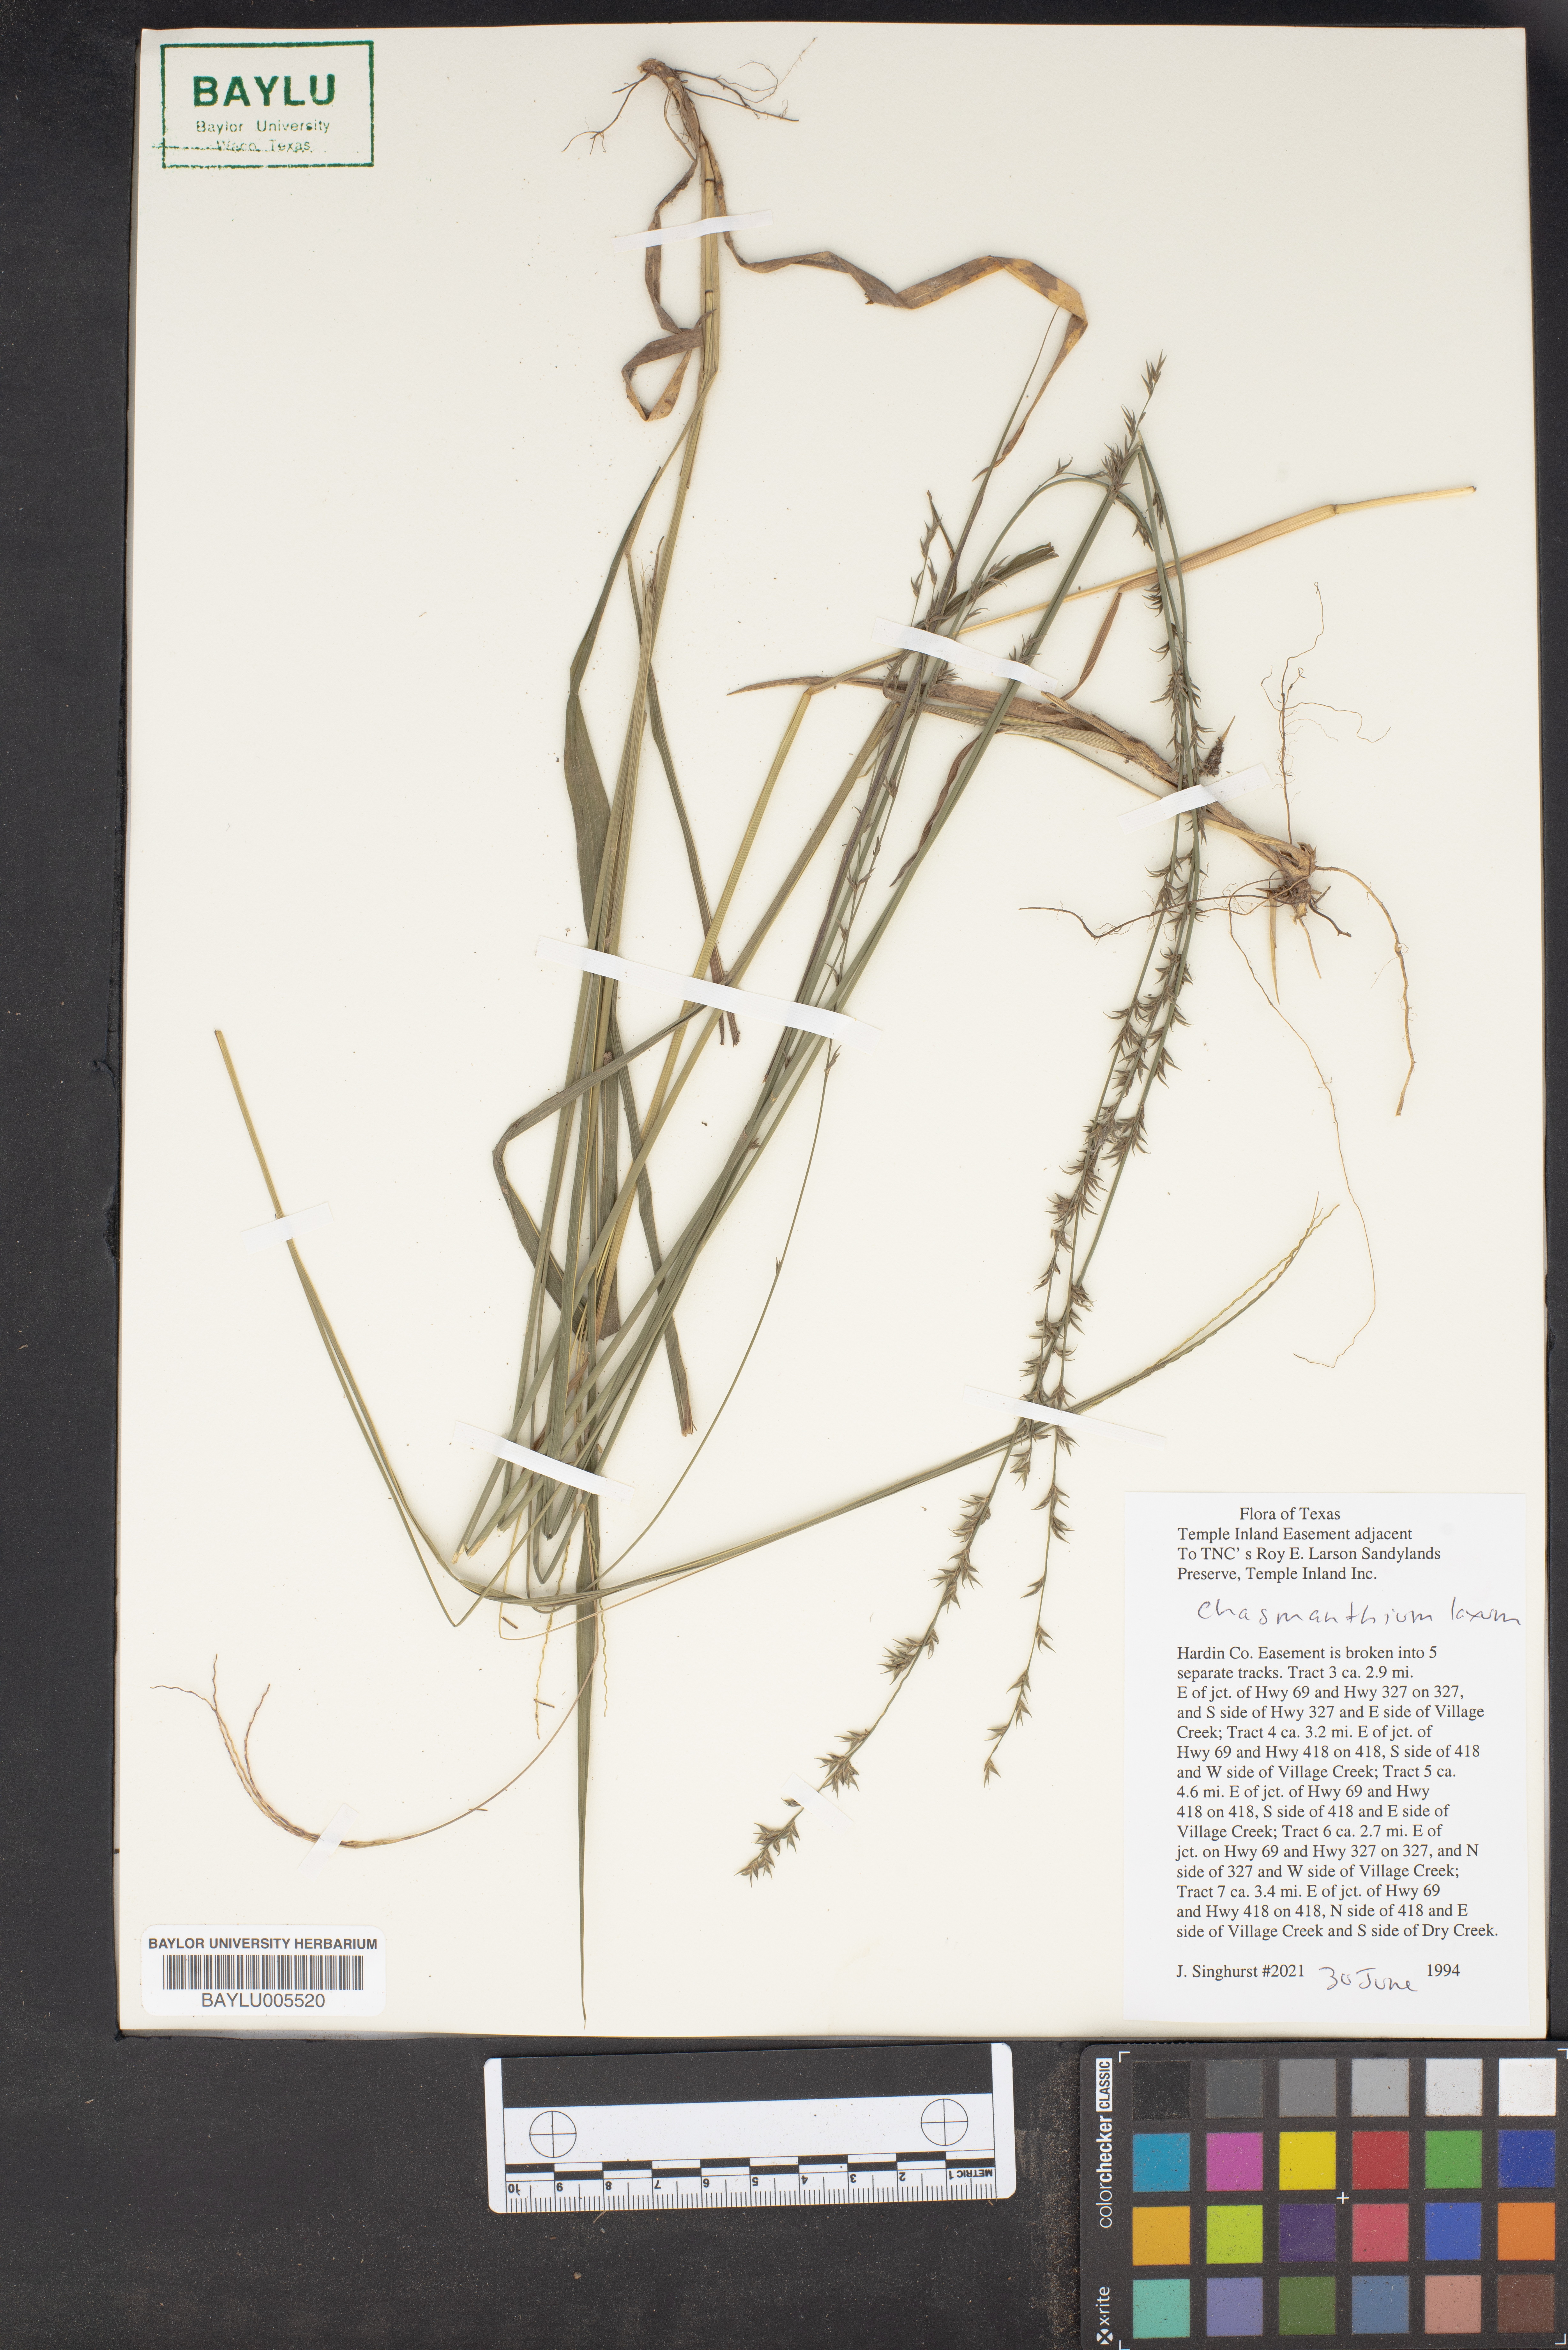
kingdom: Plantae
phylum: Tracheophyta
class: Liliopsida
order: Poales
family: Poaceae
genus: Chasmanthium
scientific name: Chasmanthium laxum
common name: Slender chasmanthium
